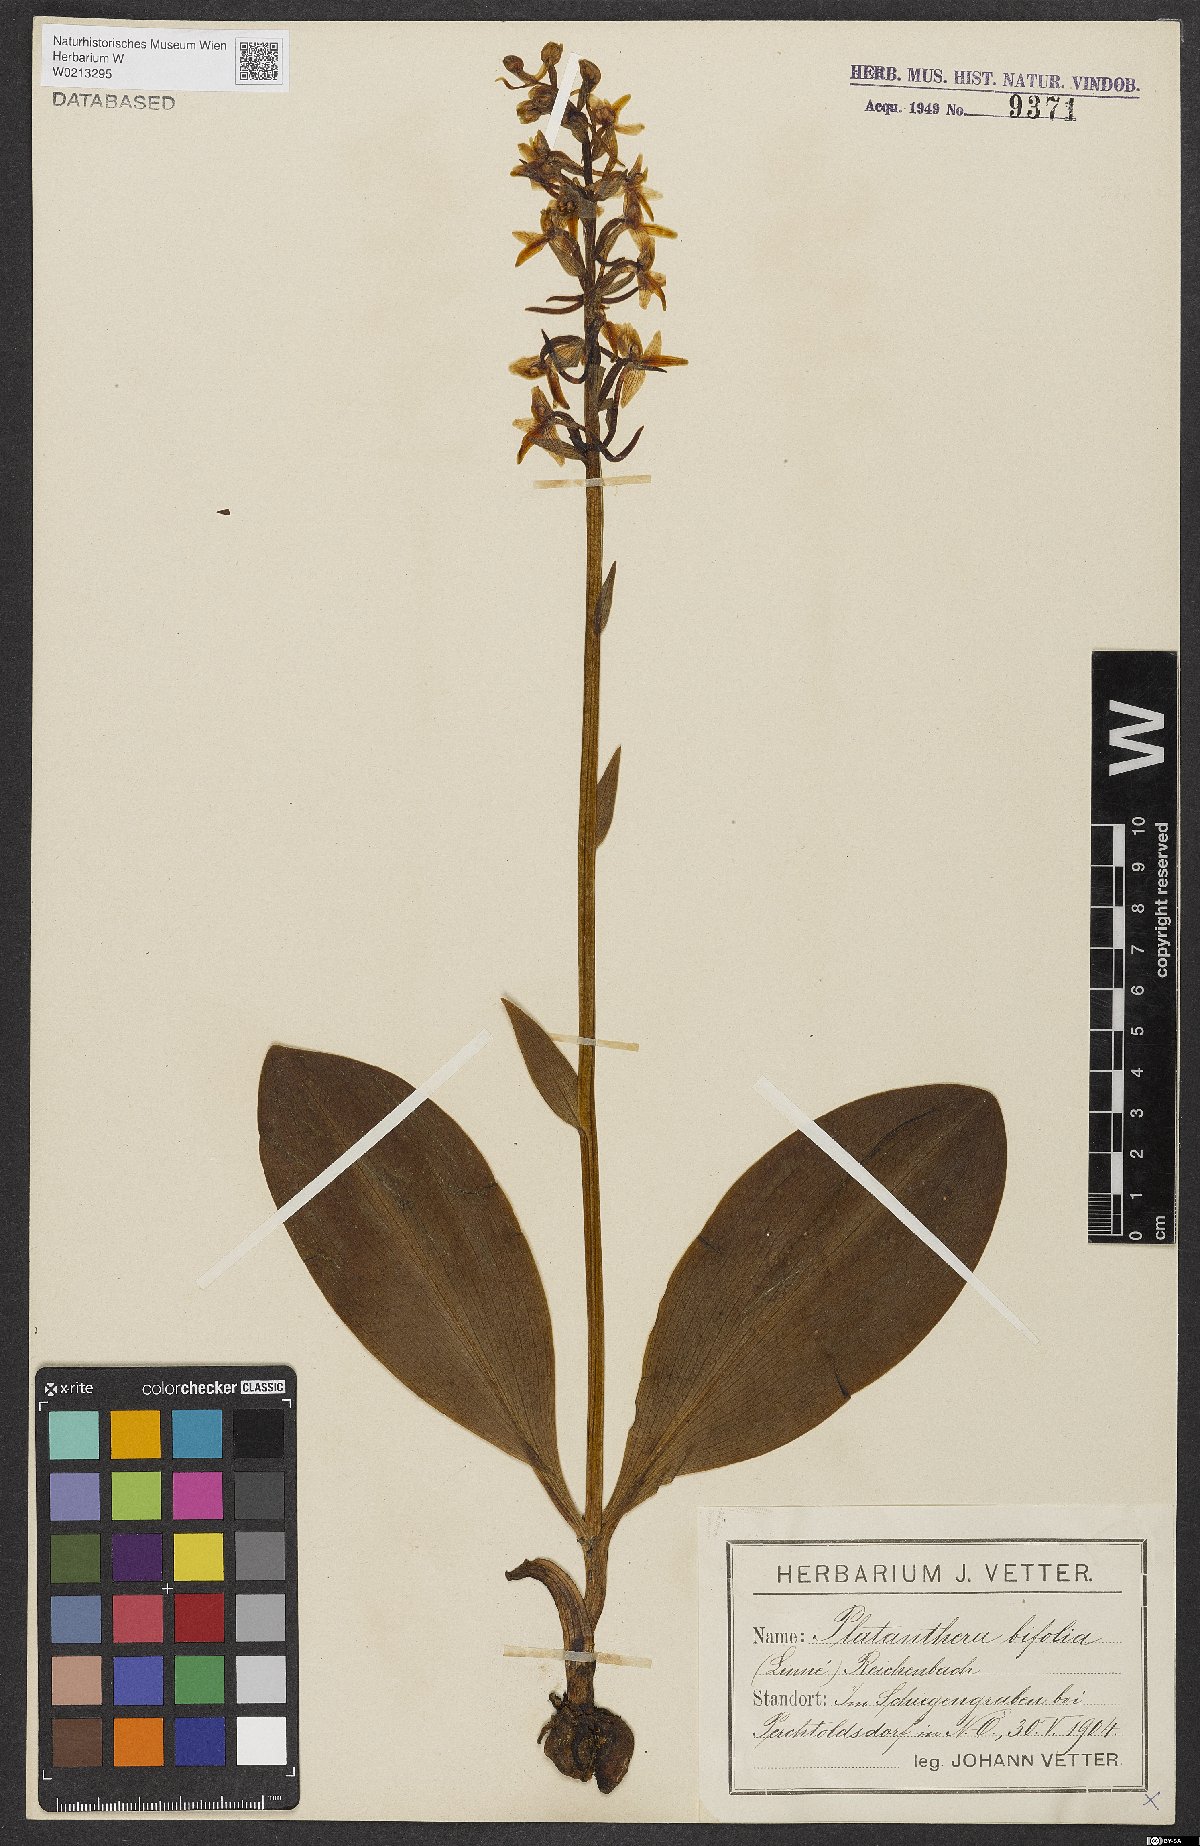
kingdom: Plantae
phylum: Tracheophyta
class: Liliopsida
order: Asparagales
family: Orchidaceae
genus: Platanthera
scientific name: Platanthera bifolia
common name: Lesser butterfly-orchid
